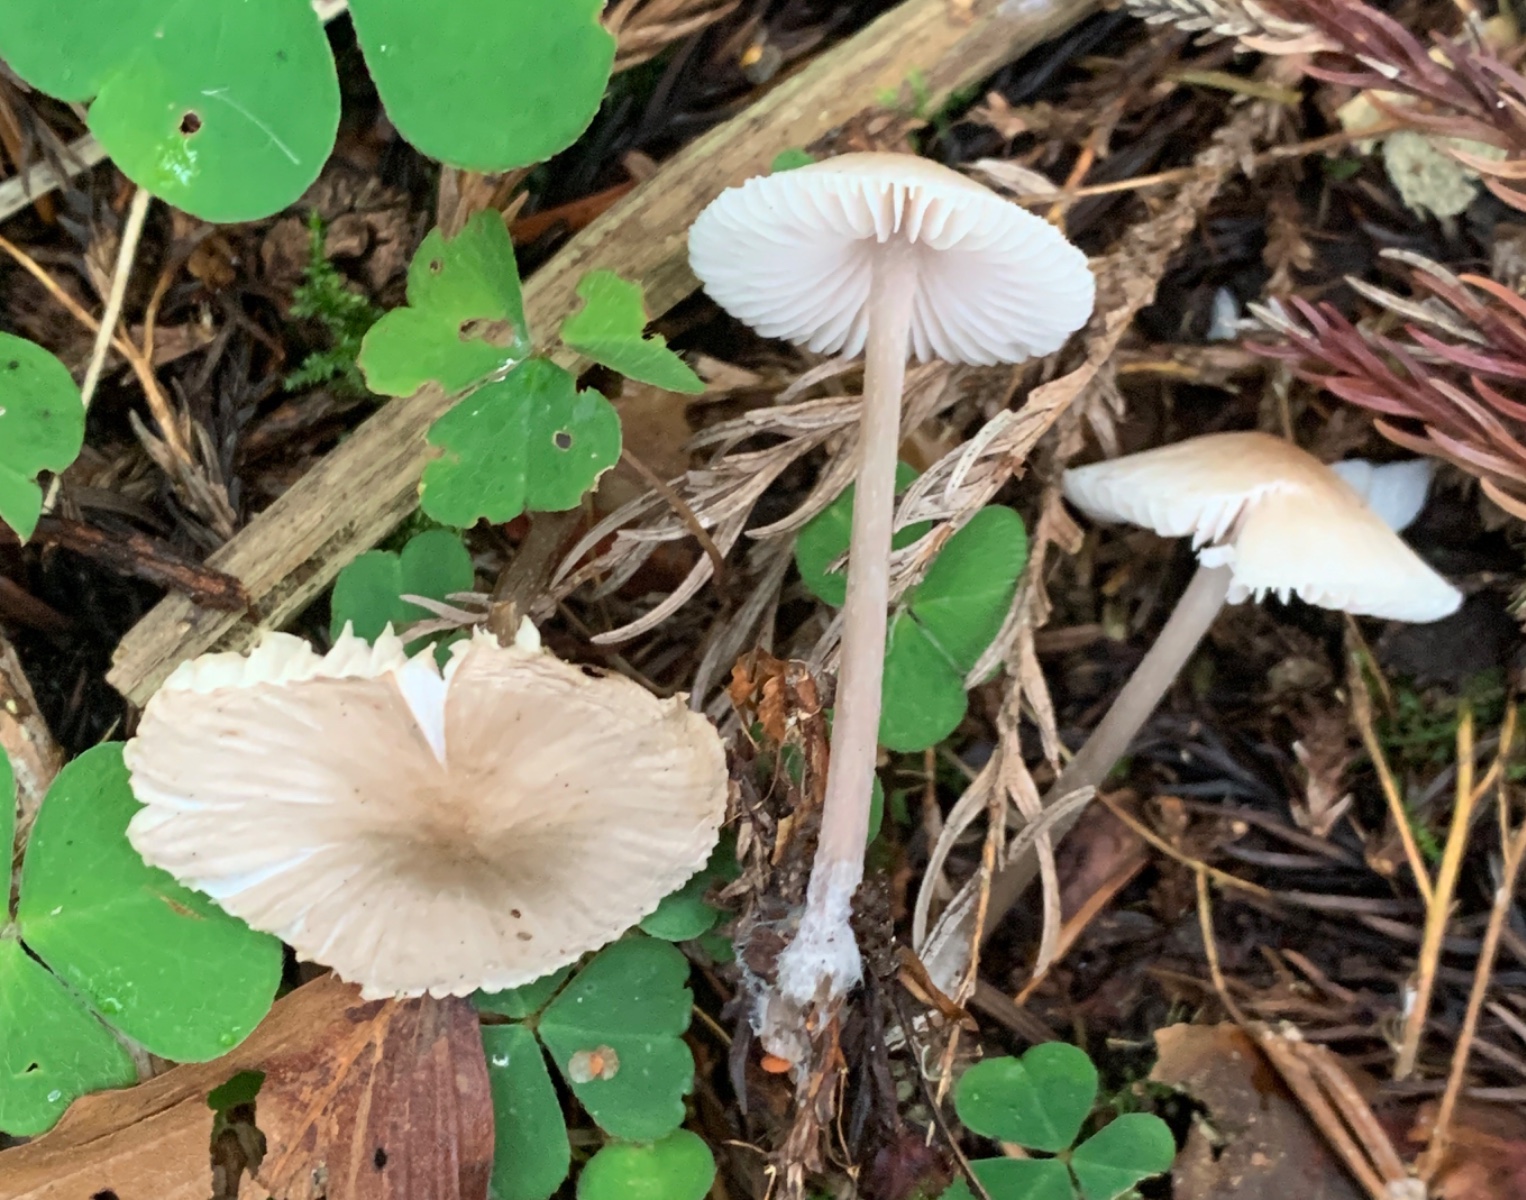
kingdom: Fungi
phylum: Basidiomycota
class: Agaricomycetes
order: Agaricales
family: Mycenaceae
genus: Mycena
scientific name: Mycena zephirus
